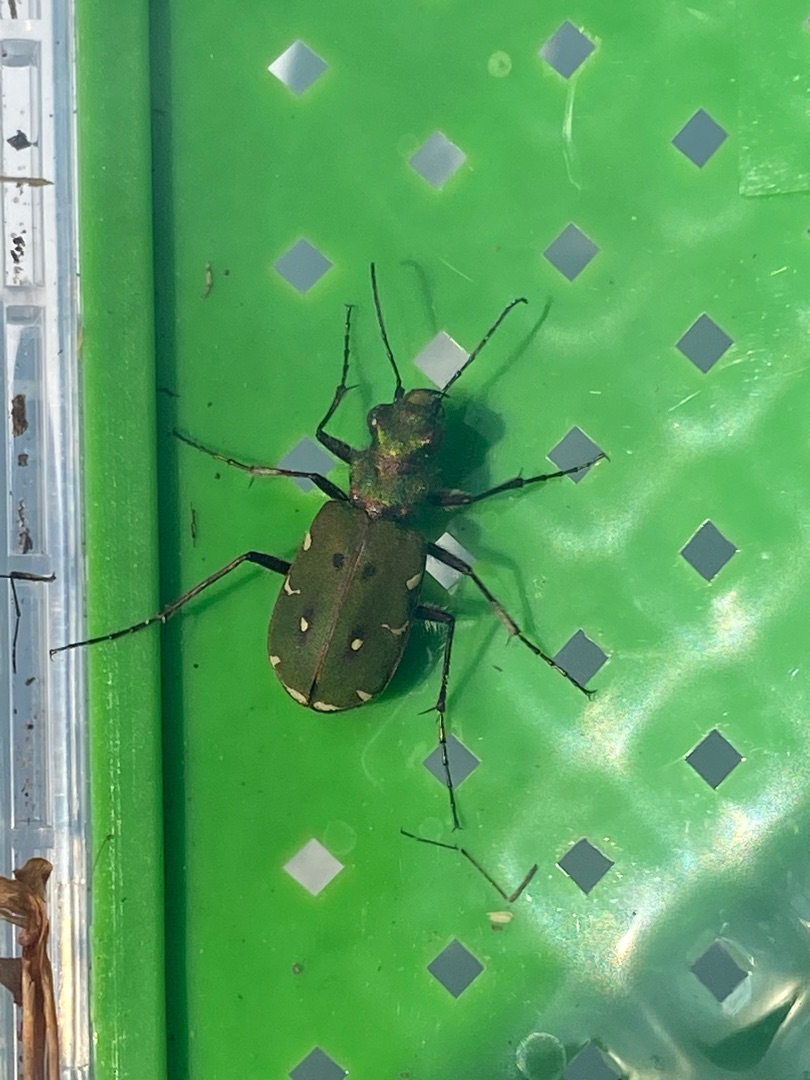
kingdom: Animalia
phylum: Arthropoda
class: Insecta
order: Coleoptera
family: Carabidae
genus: Cicindela
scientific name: Cicindela campestris
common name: Grøn sandspringer
